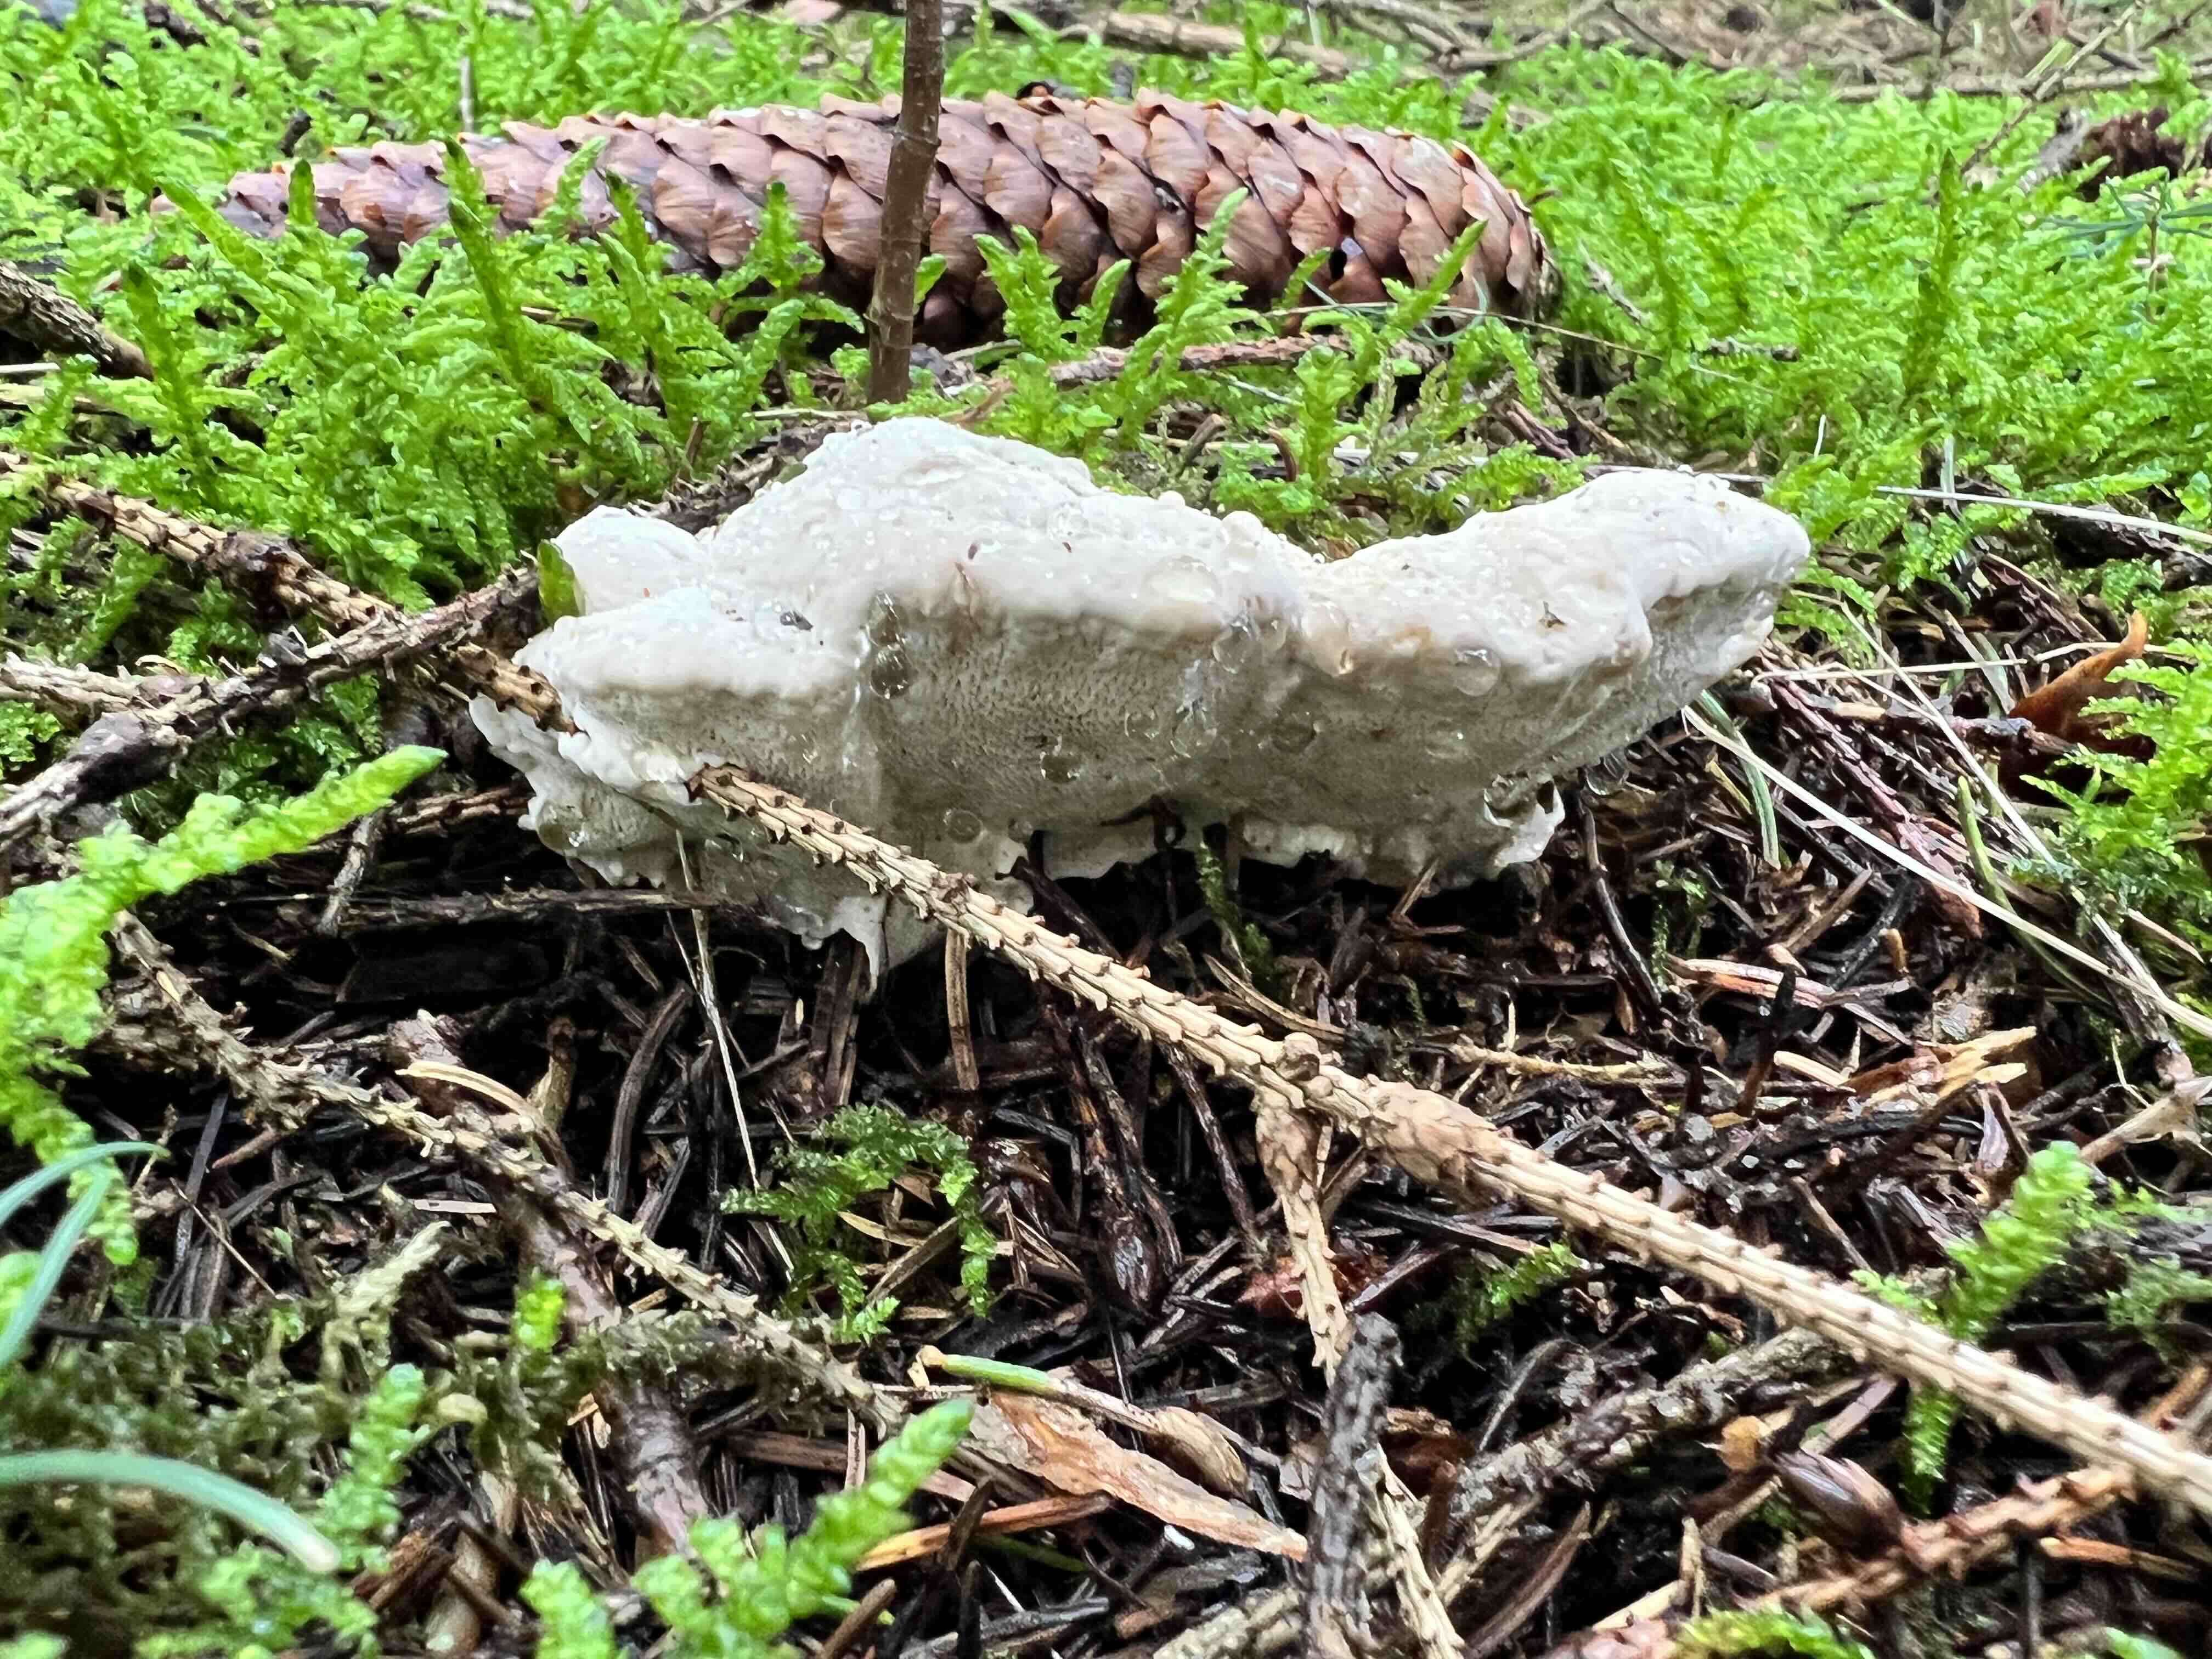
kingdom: Fungi
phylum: Basidiomycota
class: Agaricomycetes
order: Polyporales
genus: Calcipostia
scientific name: Calcipostia guttulata
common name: dråbe-kødporesvamp
